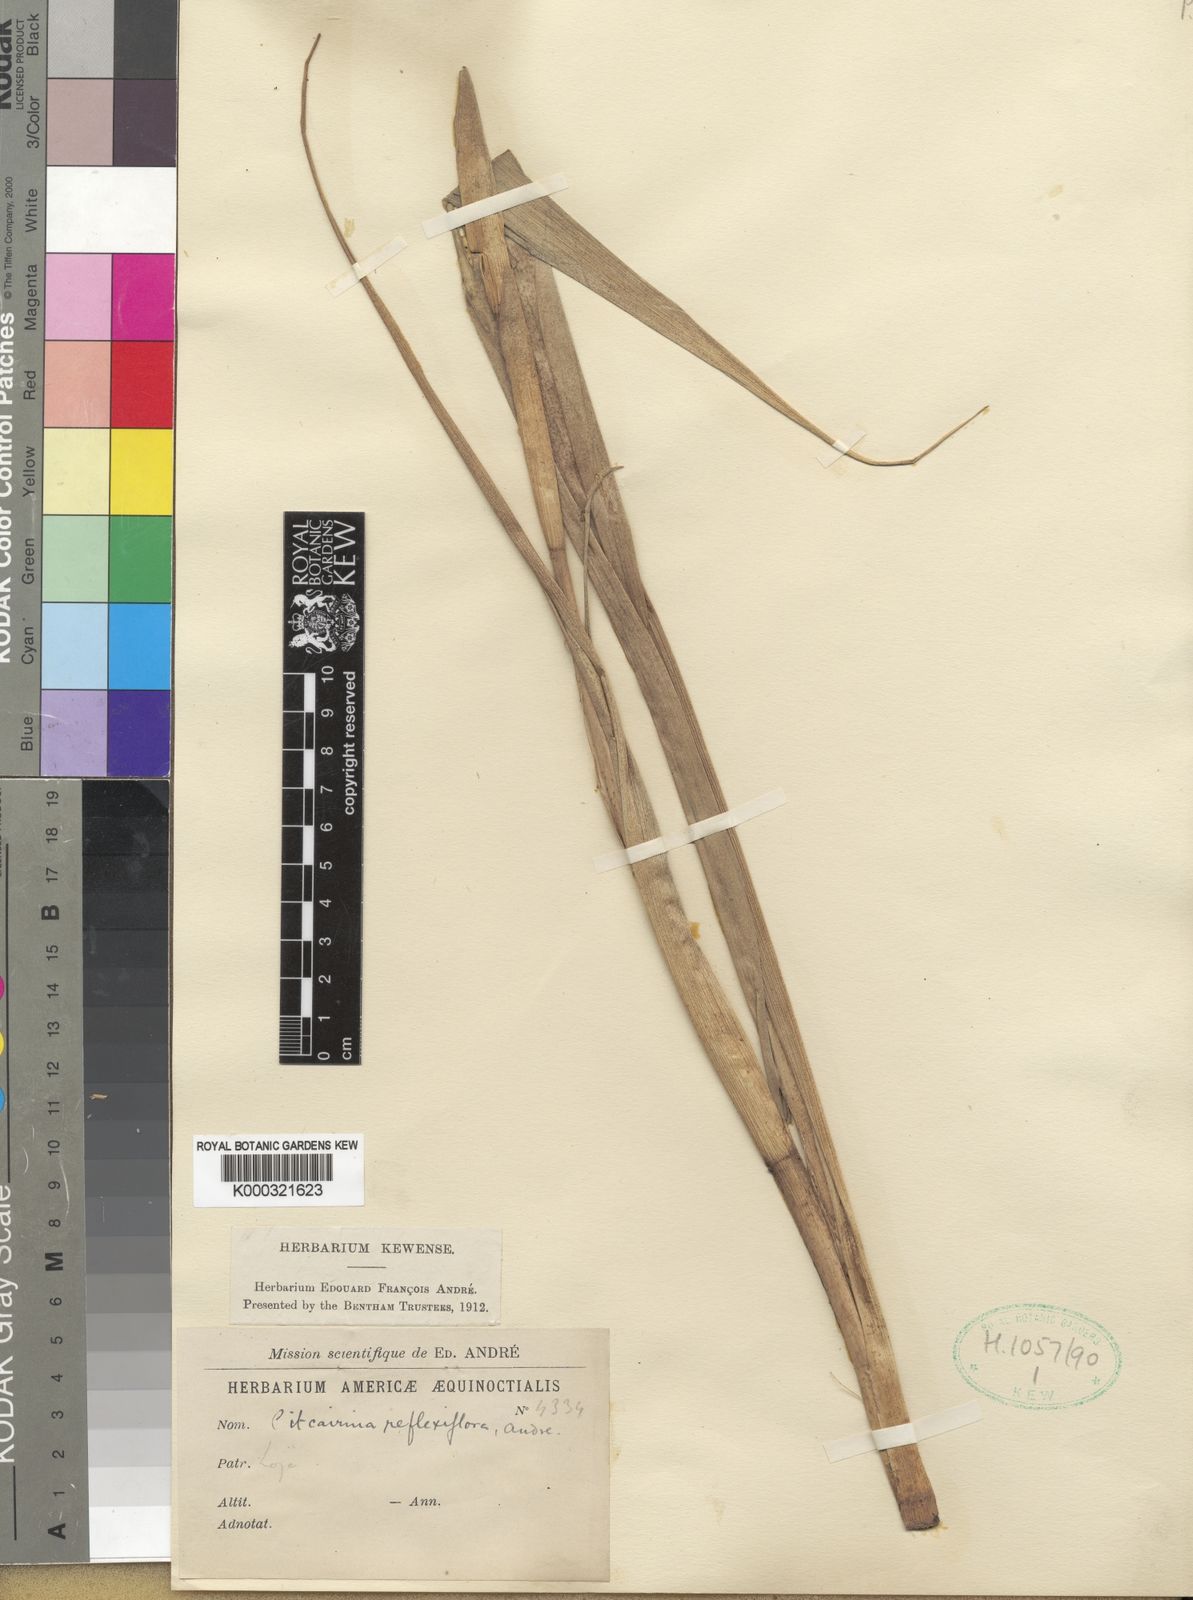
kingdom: Plantae
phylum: Tracheophyta
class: Liliopsida
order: Poales
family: Bromeliaceae
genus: Pitcairnia
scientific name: Pitcairnia
